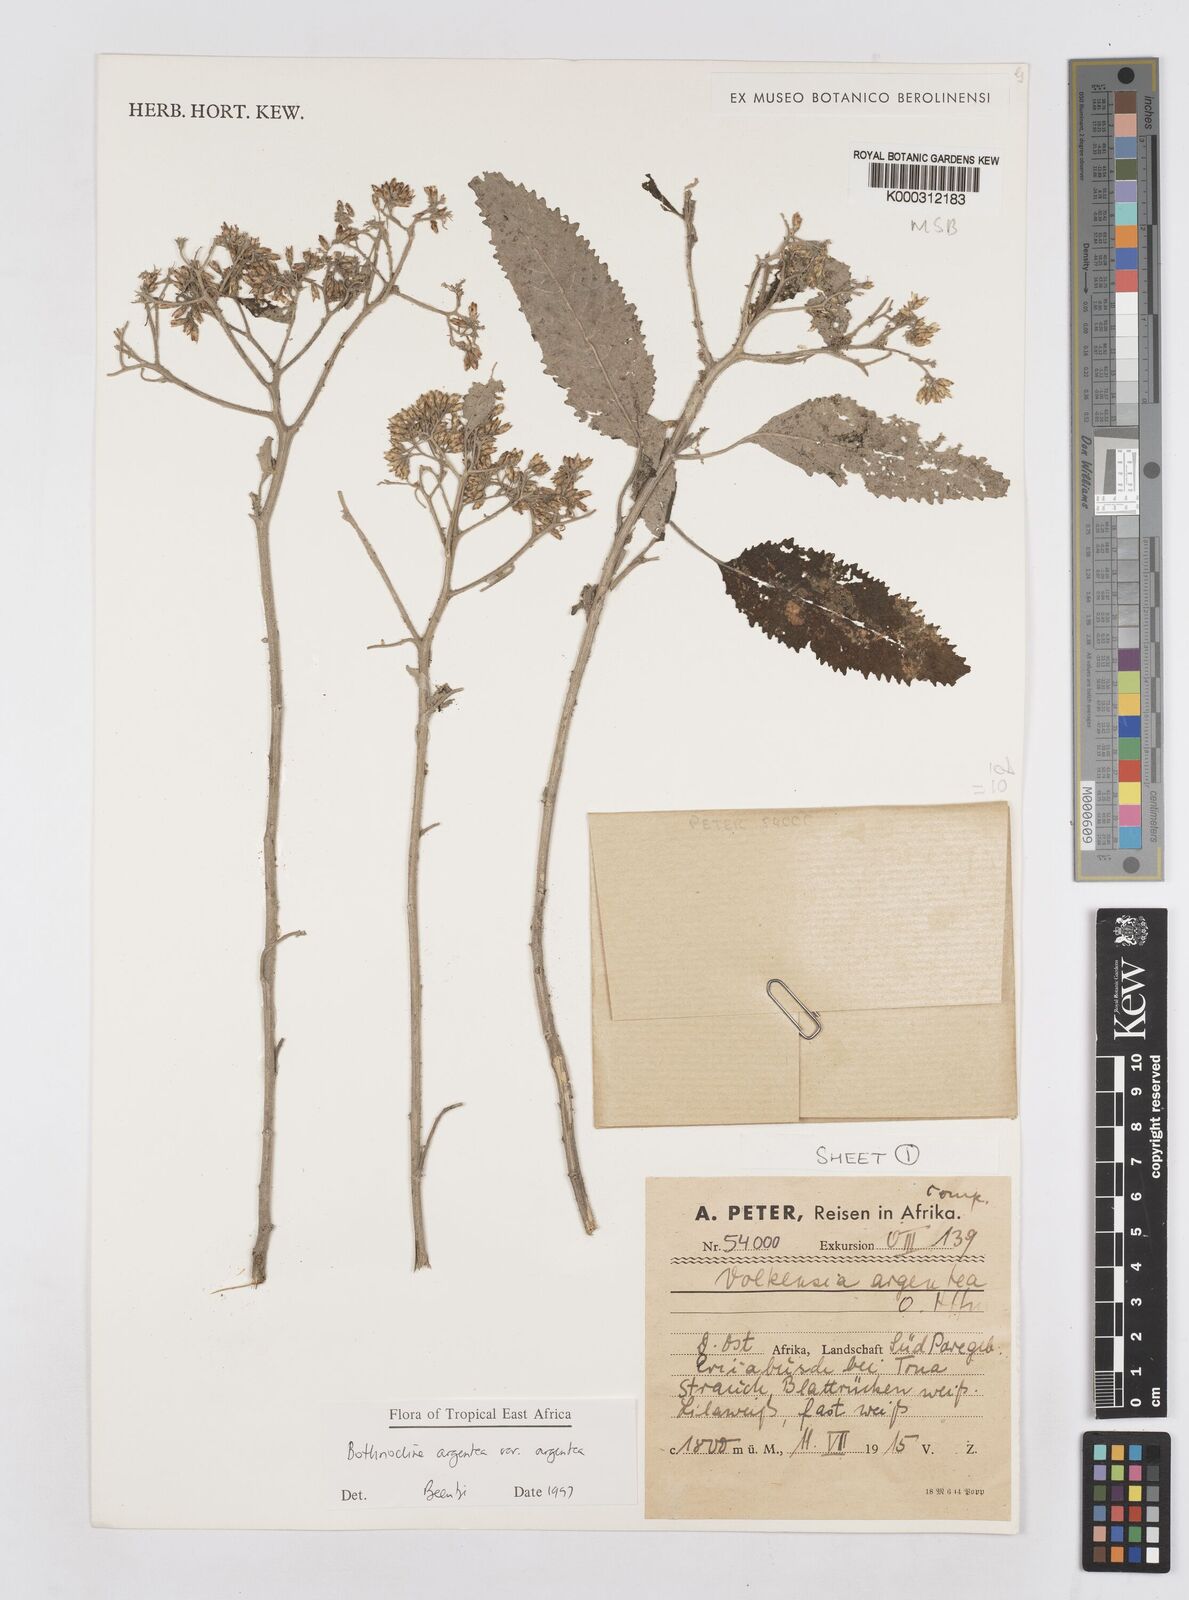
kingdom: Plantae
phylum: Tracheophyta
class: Magnoliopsida
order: Asterales
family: Asteraceae
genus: Bothriocline
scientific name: Bothriocline argentea
